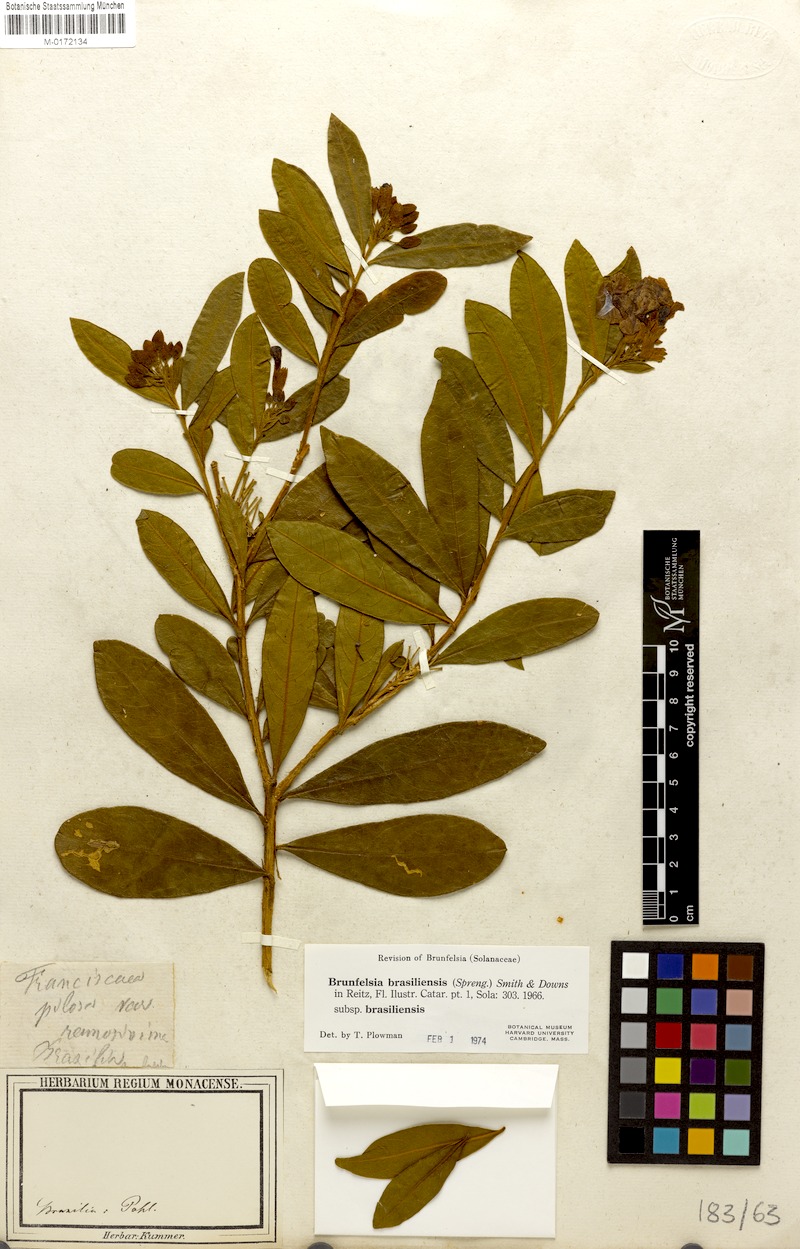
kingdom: Plantae
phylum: Tracheophyta
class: Magnoliopsida
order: Solanales
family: Solanaceae
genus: Brunfelsia
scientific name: Brunfelsia brasiliensis
